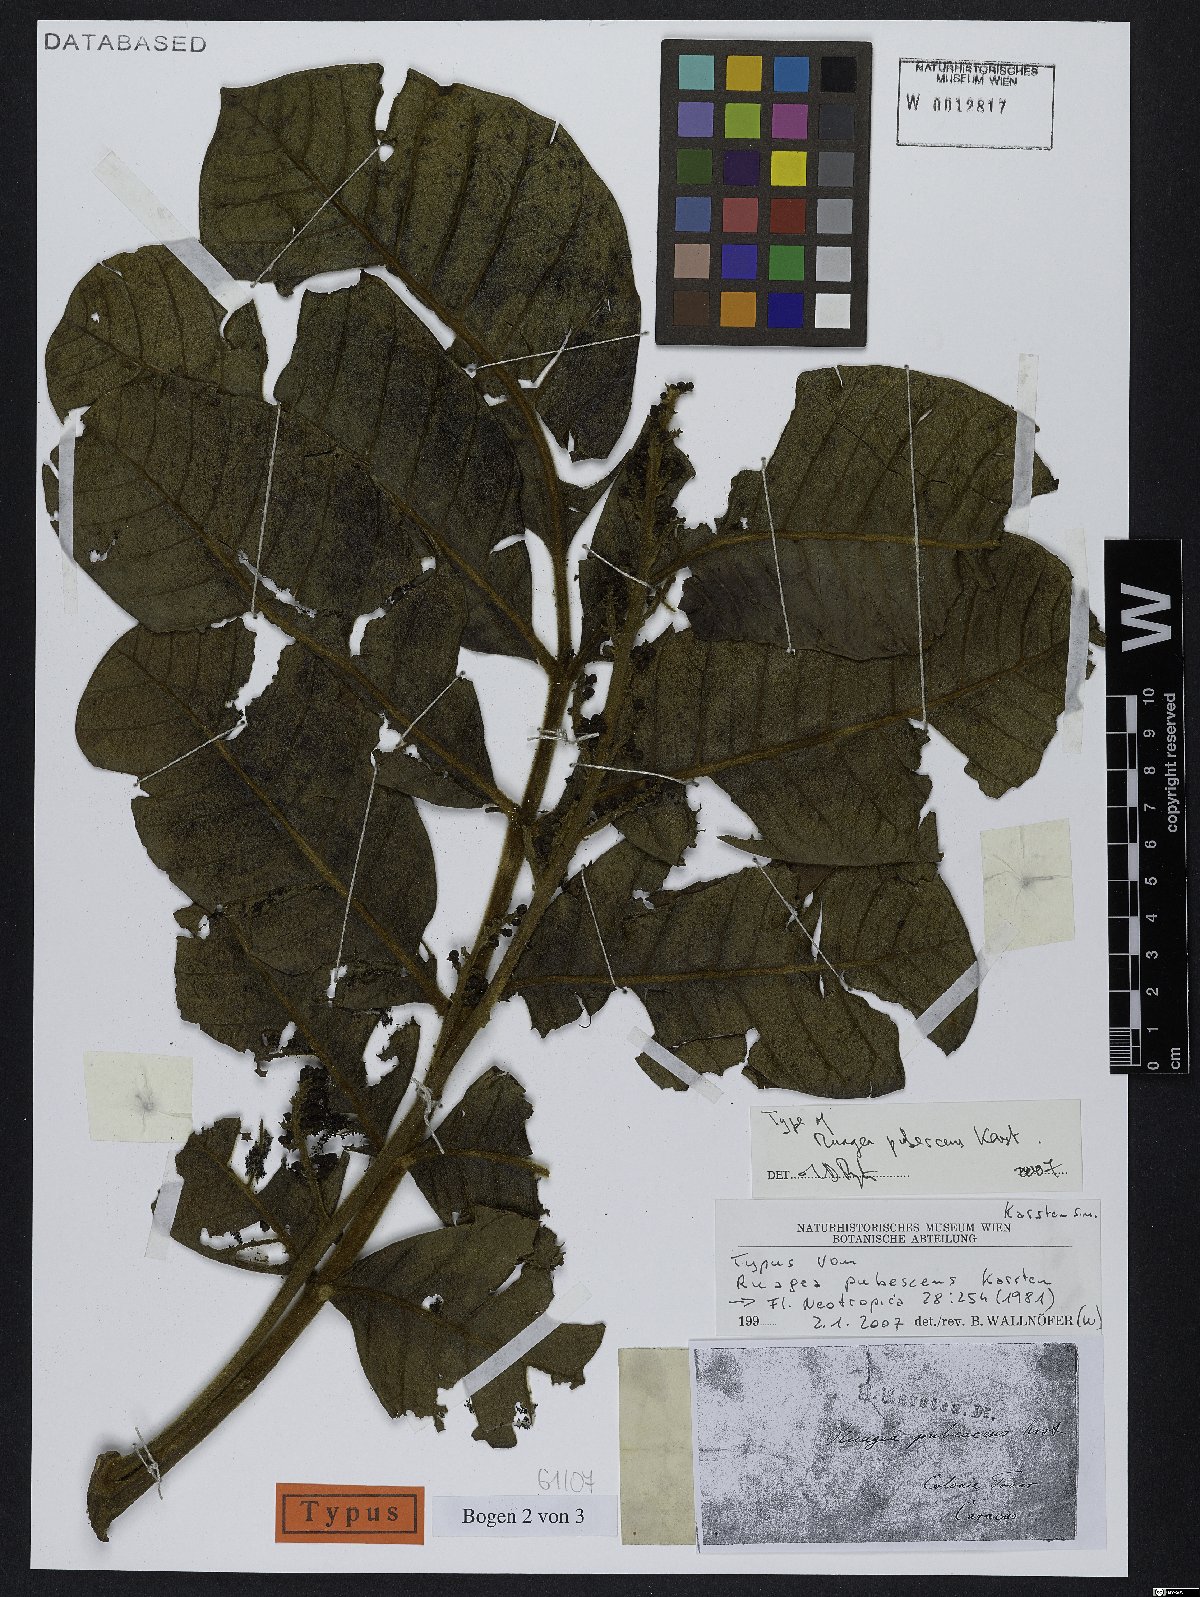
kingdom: Plantae
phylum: Tracheophyta
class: Magnoliopsida
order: Sapindales
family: Meliaceae
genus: Ruagea
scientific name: Ruagea pubescens
